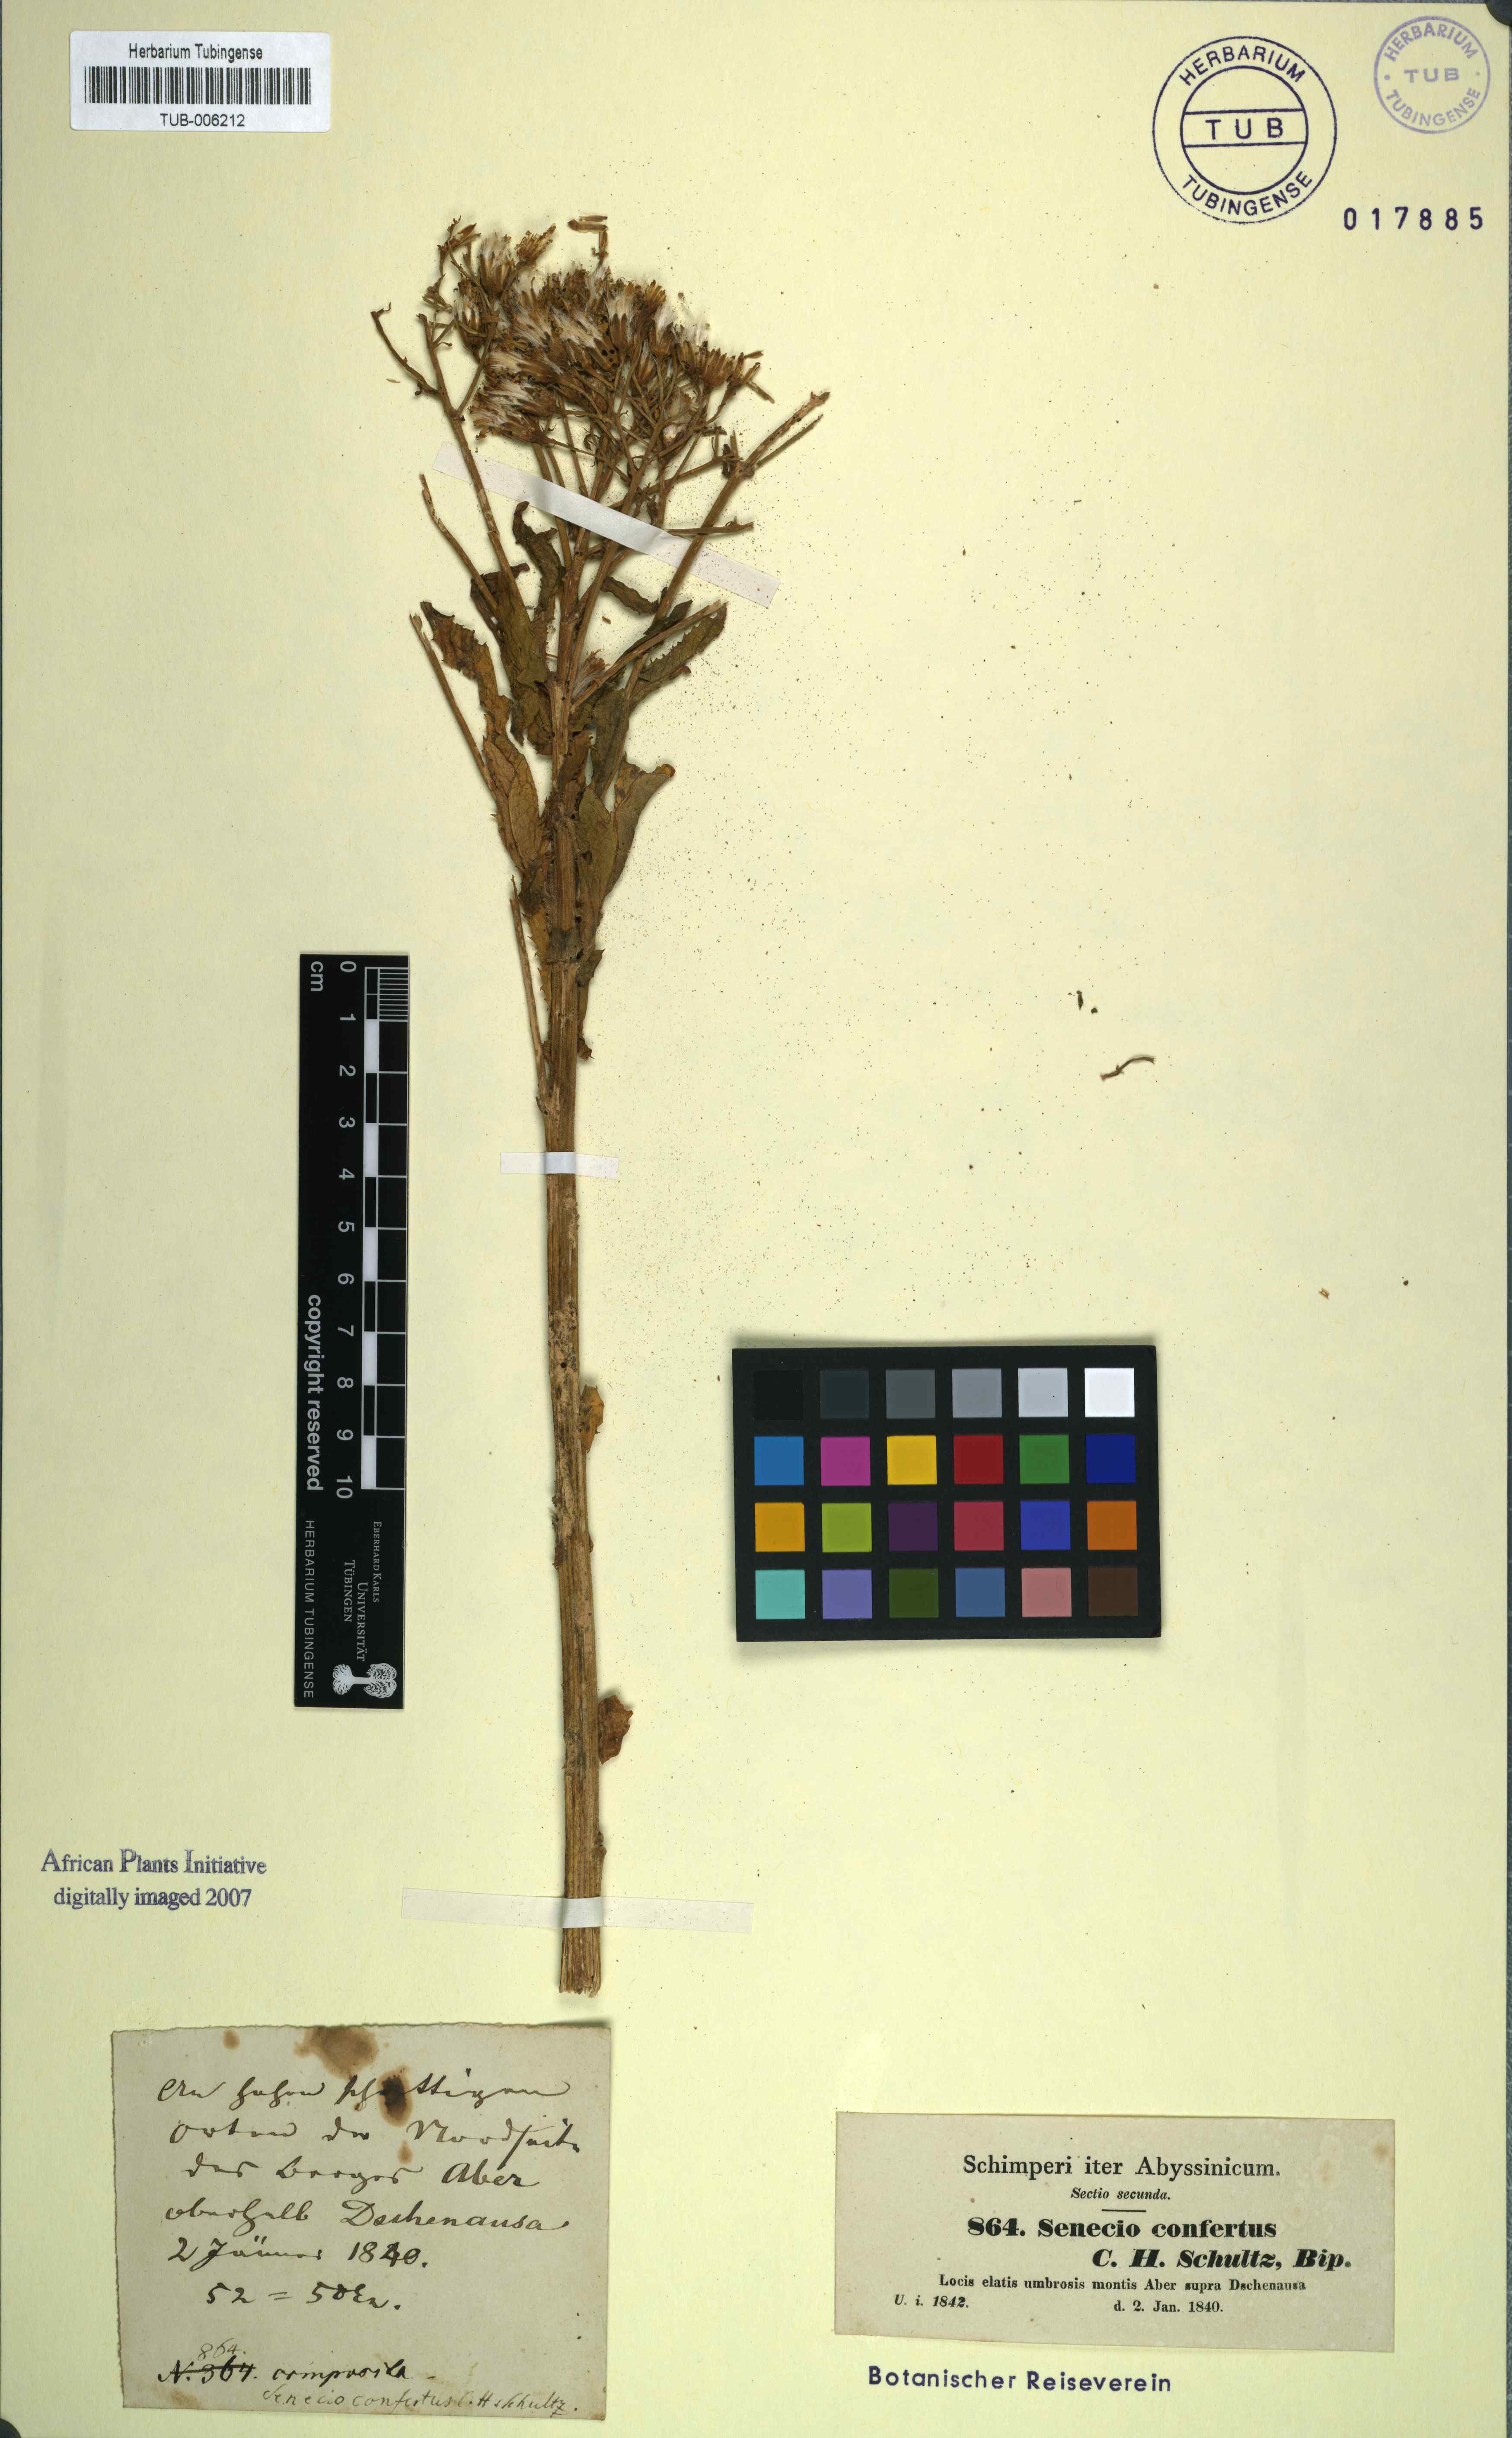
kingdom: Plantae
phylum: Tracheophyta
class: Magnoliopsida
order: Asterales
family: Asteraceae
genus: Senecio
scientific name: Senecio confertus
